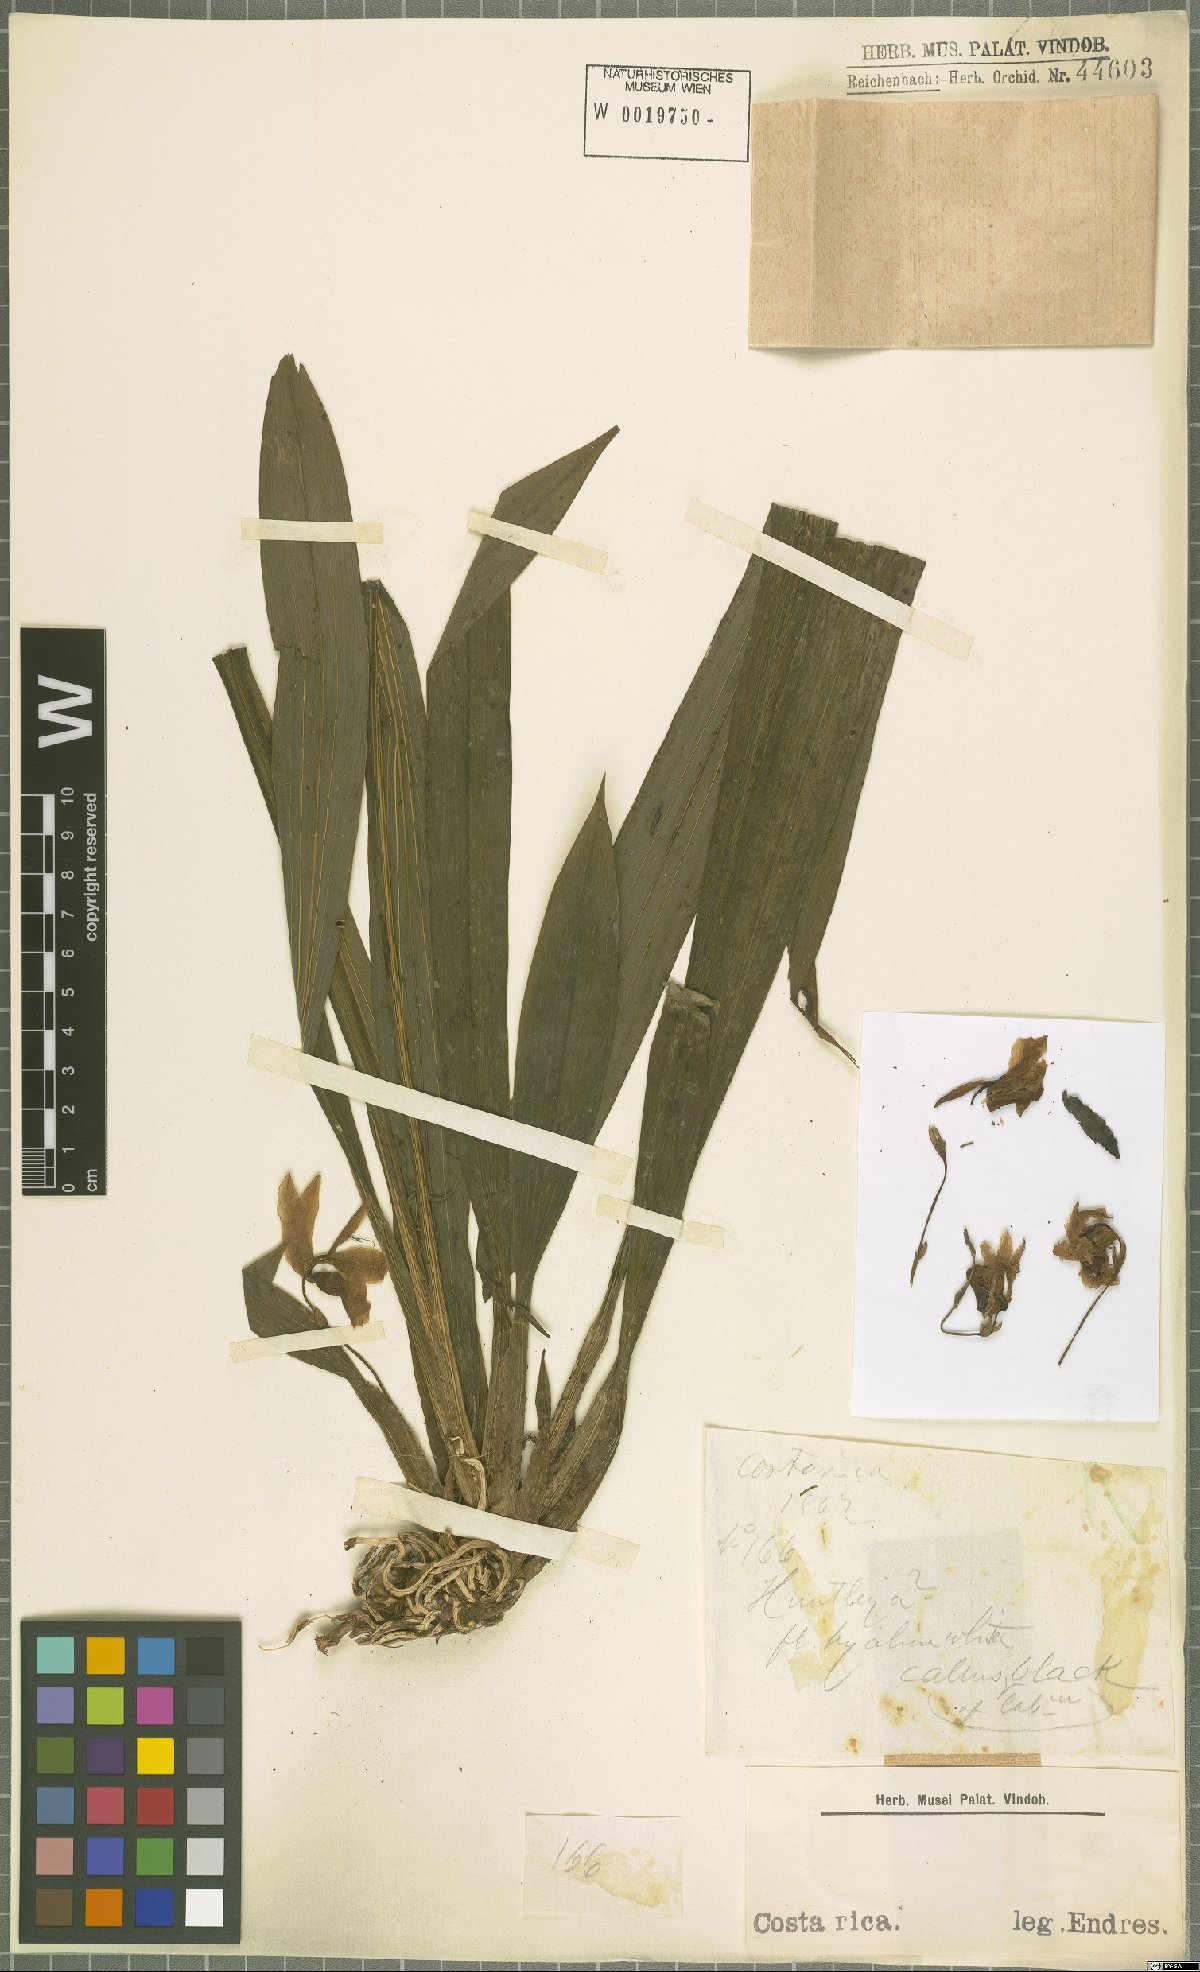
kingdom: Plantae
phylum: Tracheophyta
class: Liliopsida
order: Asparagales
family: Orchidaceae
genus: Huntleya
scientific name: Huntleya
